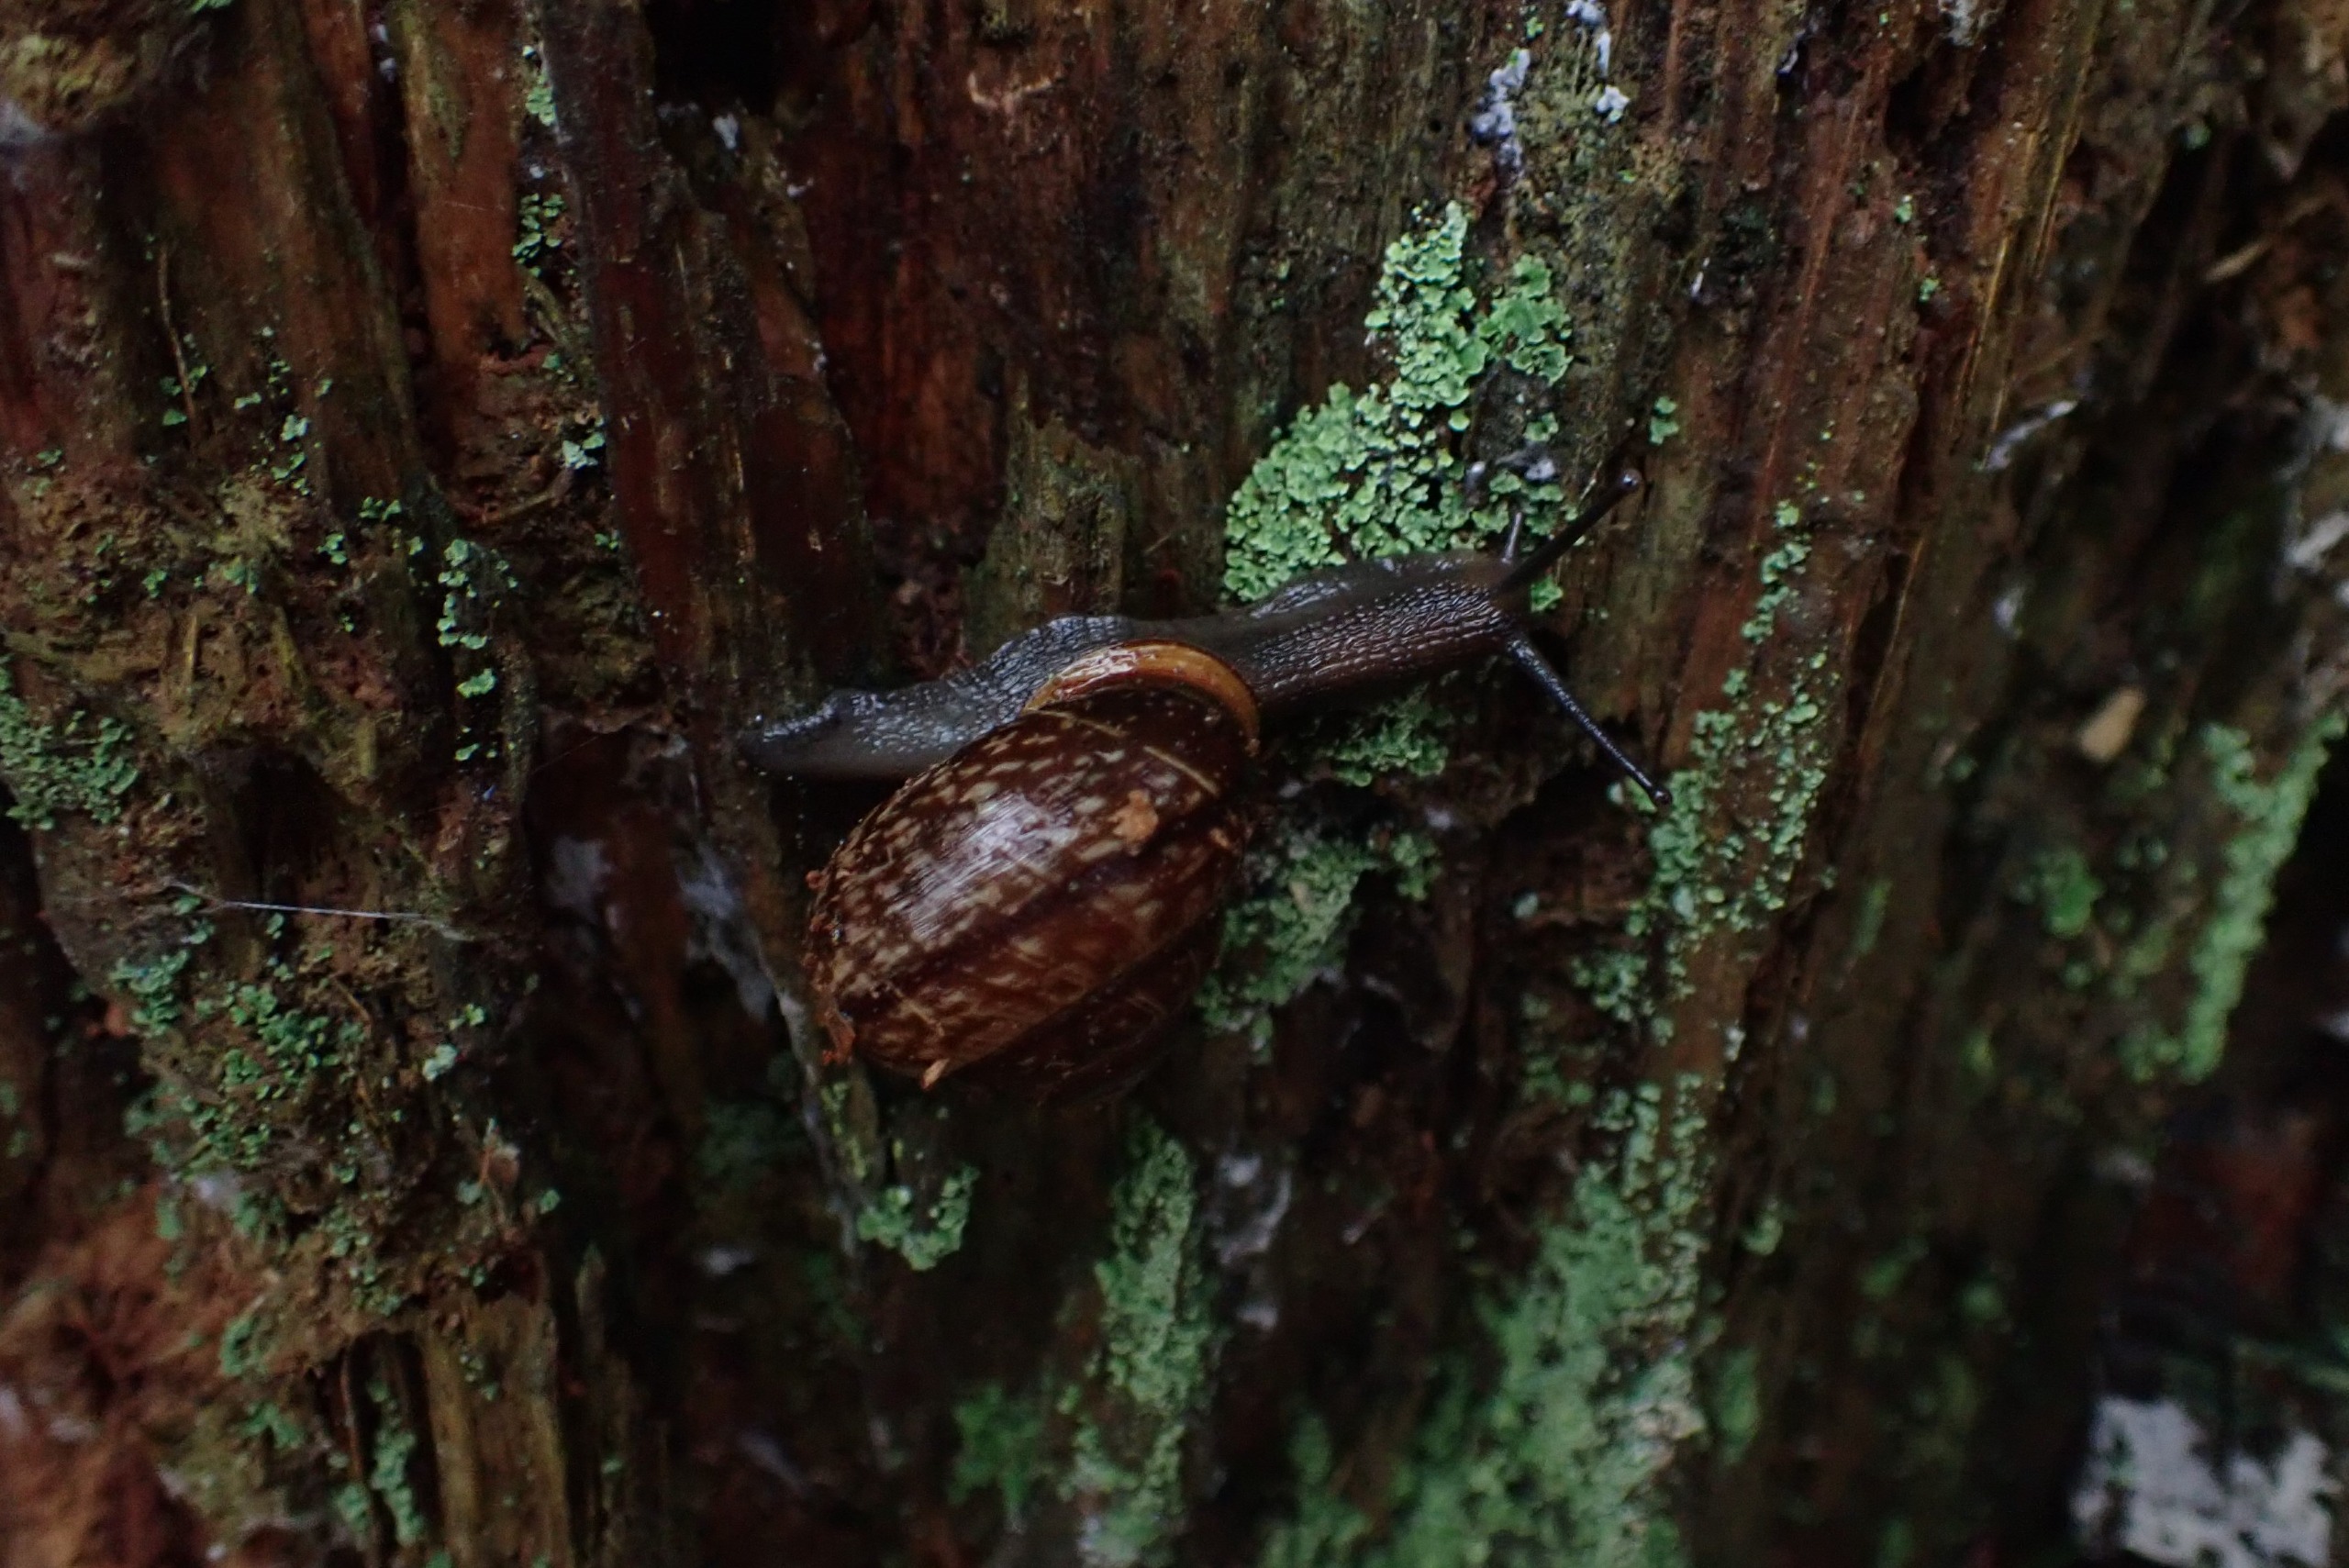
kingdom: Animalia
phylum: Mollusca
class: Gastropoda
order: Stylommatophora
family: Helicidae
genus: Arianta
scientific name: Arianta arbustorum
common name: Kratsnegl
